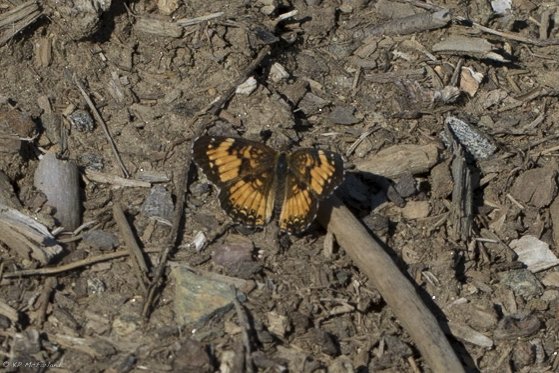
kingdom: Animalia
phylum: Arthropoda
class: Insecta
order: Lepidoptera
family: Nymphalidae
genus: Chlosyne
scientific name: Chlosyne harrisii
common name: Harris's Checkerspot
